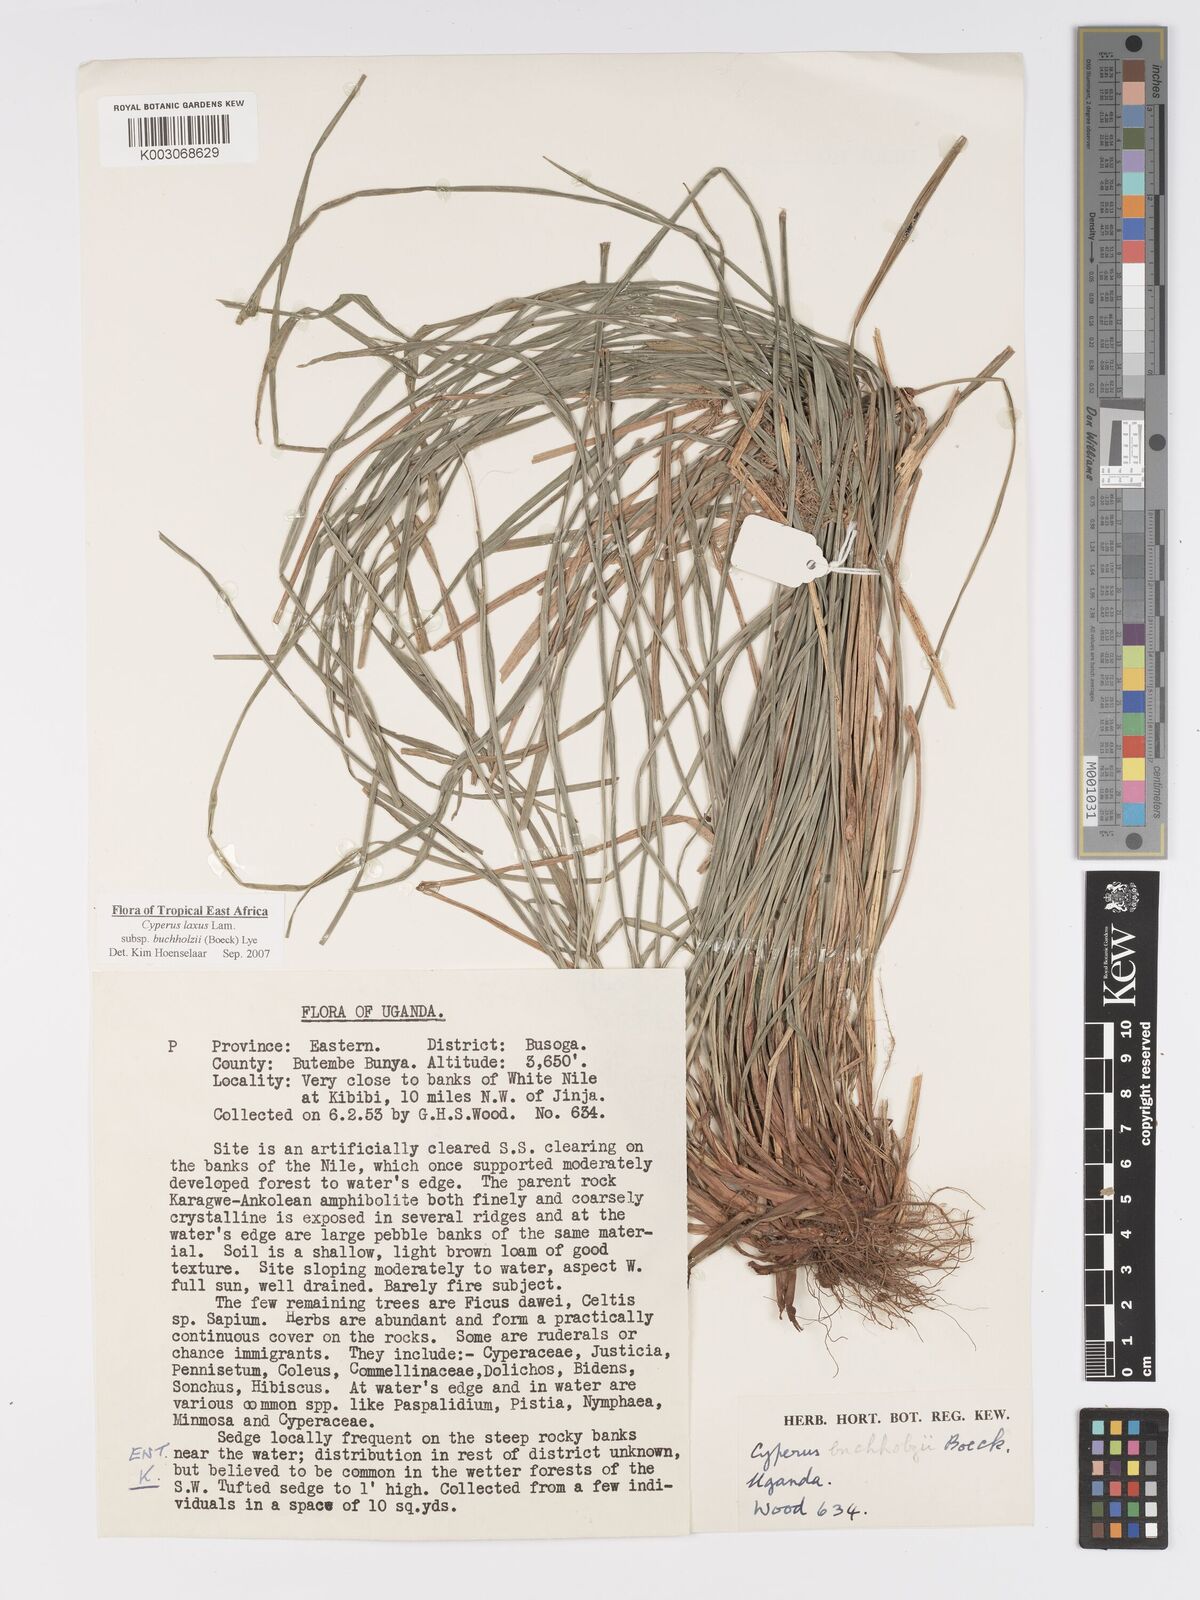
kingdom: Plantae
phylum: Tracheophyta
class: Liliopsida
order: Poales
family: Cyperaceae
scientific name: Cyperaceae
